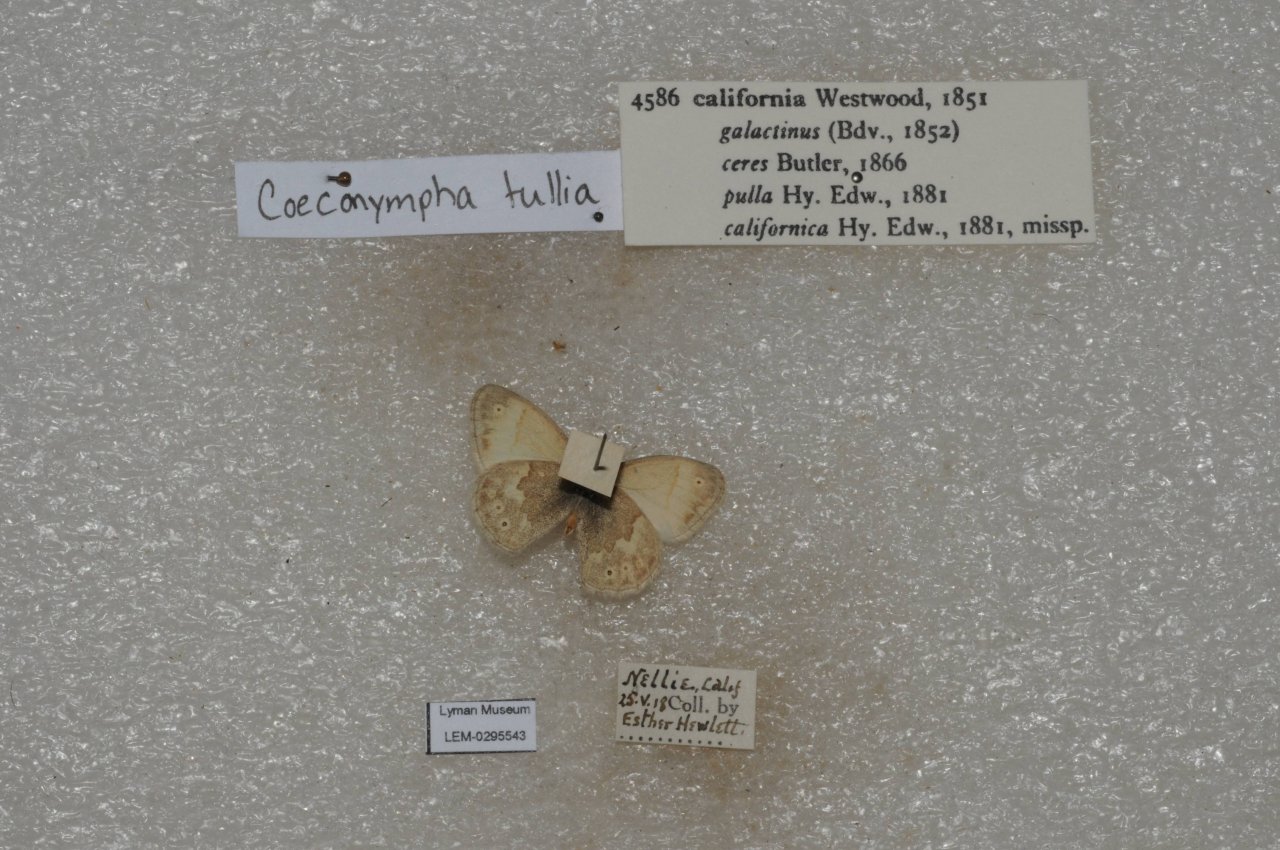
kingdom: Animalia
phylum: Arthropoda
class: Insecta
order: Lepidoptera
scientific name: Lepidoptera
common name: Butterflies
